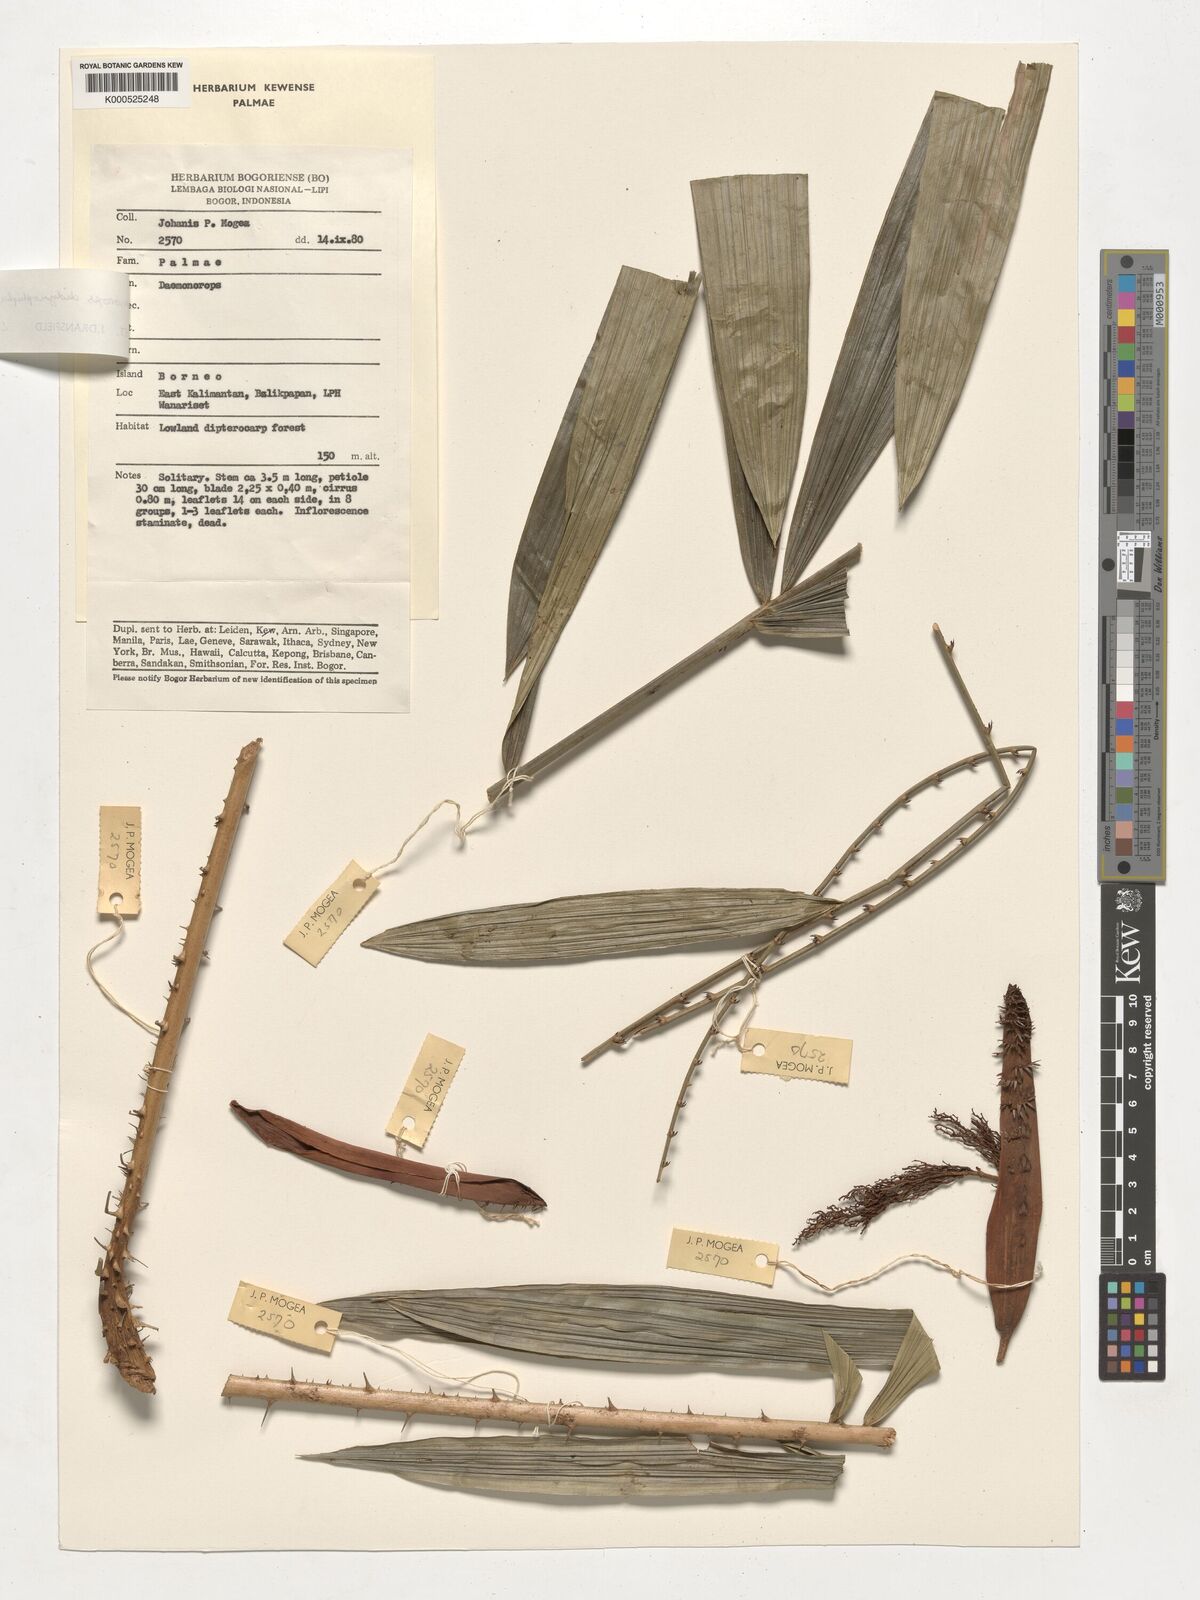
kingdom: Plantae
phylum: Tracheophyta
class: Liliopsida
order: Arecales
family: Arecaceae
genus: Calamus
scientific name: Calamus gracilipes
